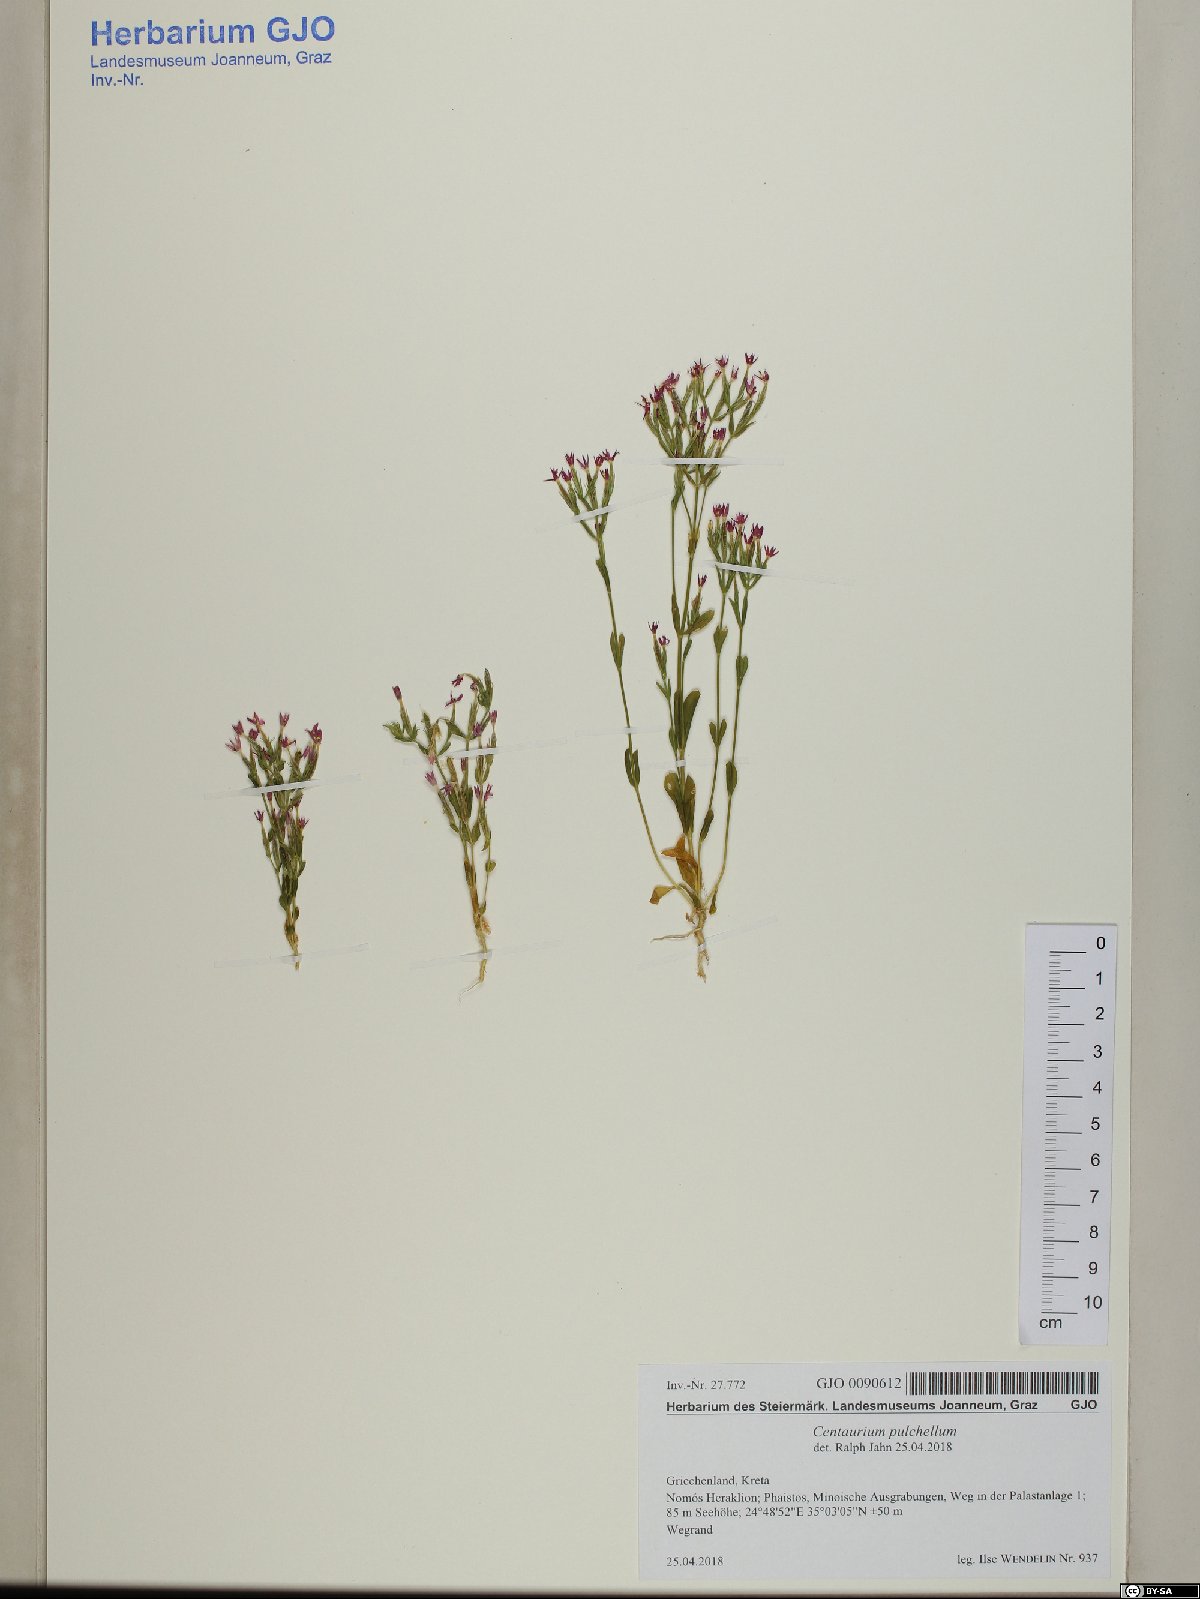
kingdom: Plantae
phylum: Tracheophyta
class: Magnoliopsida
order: Gentianales
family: Gentianaceae
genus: Centaurium
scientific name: Centaurium pulchellum
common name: Lesser centaury
